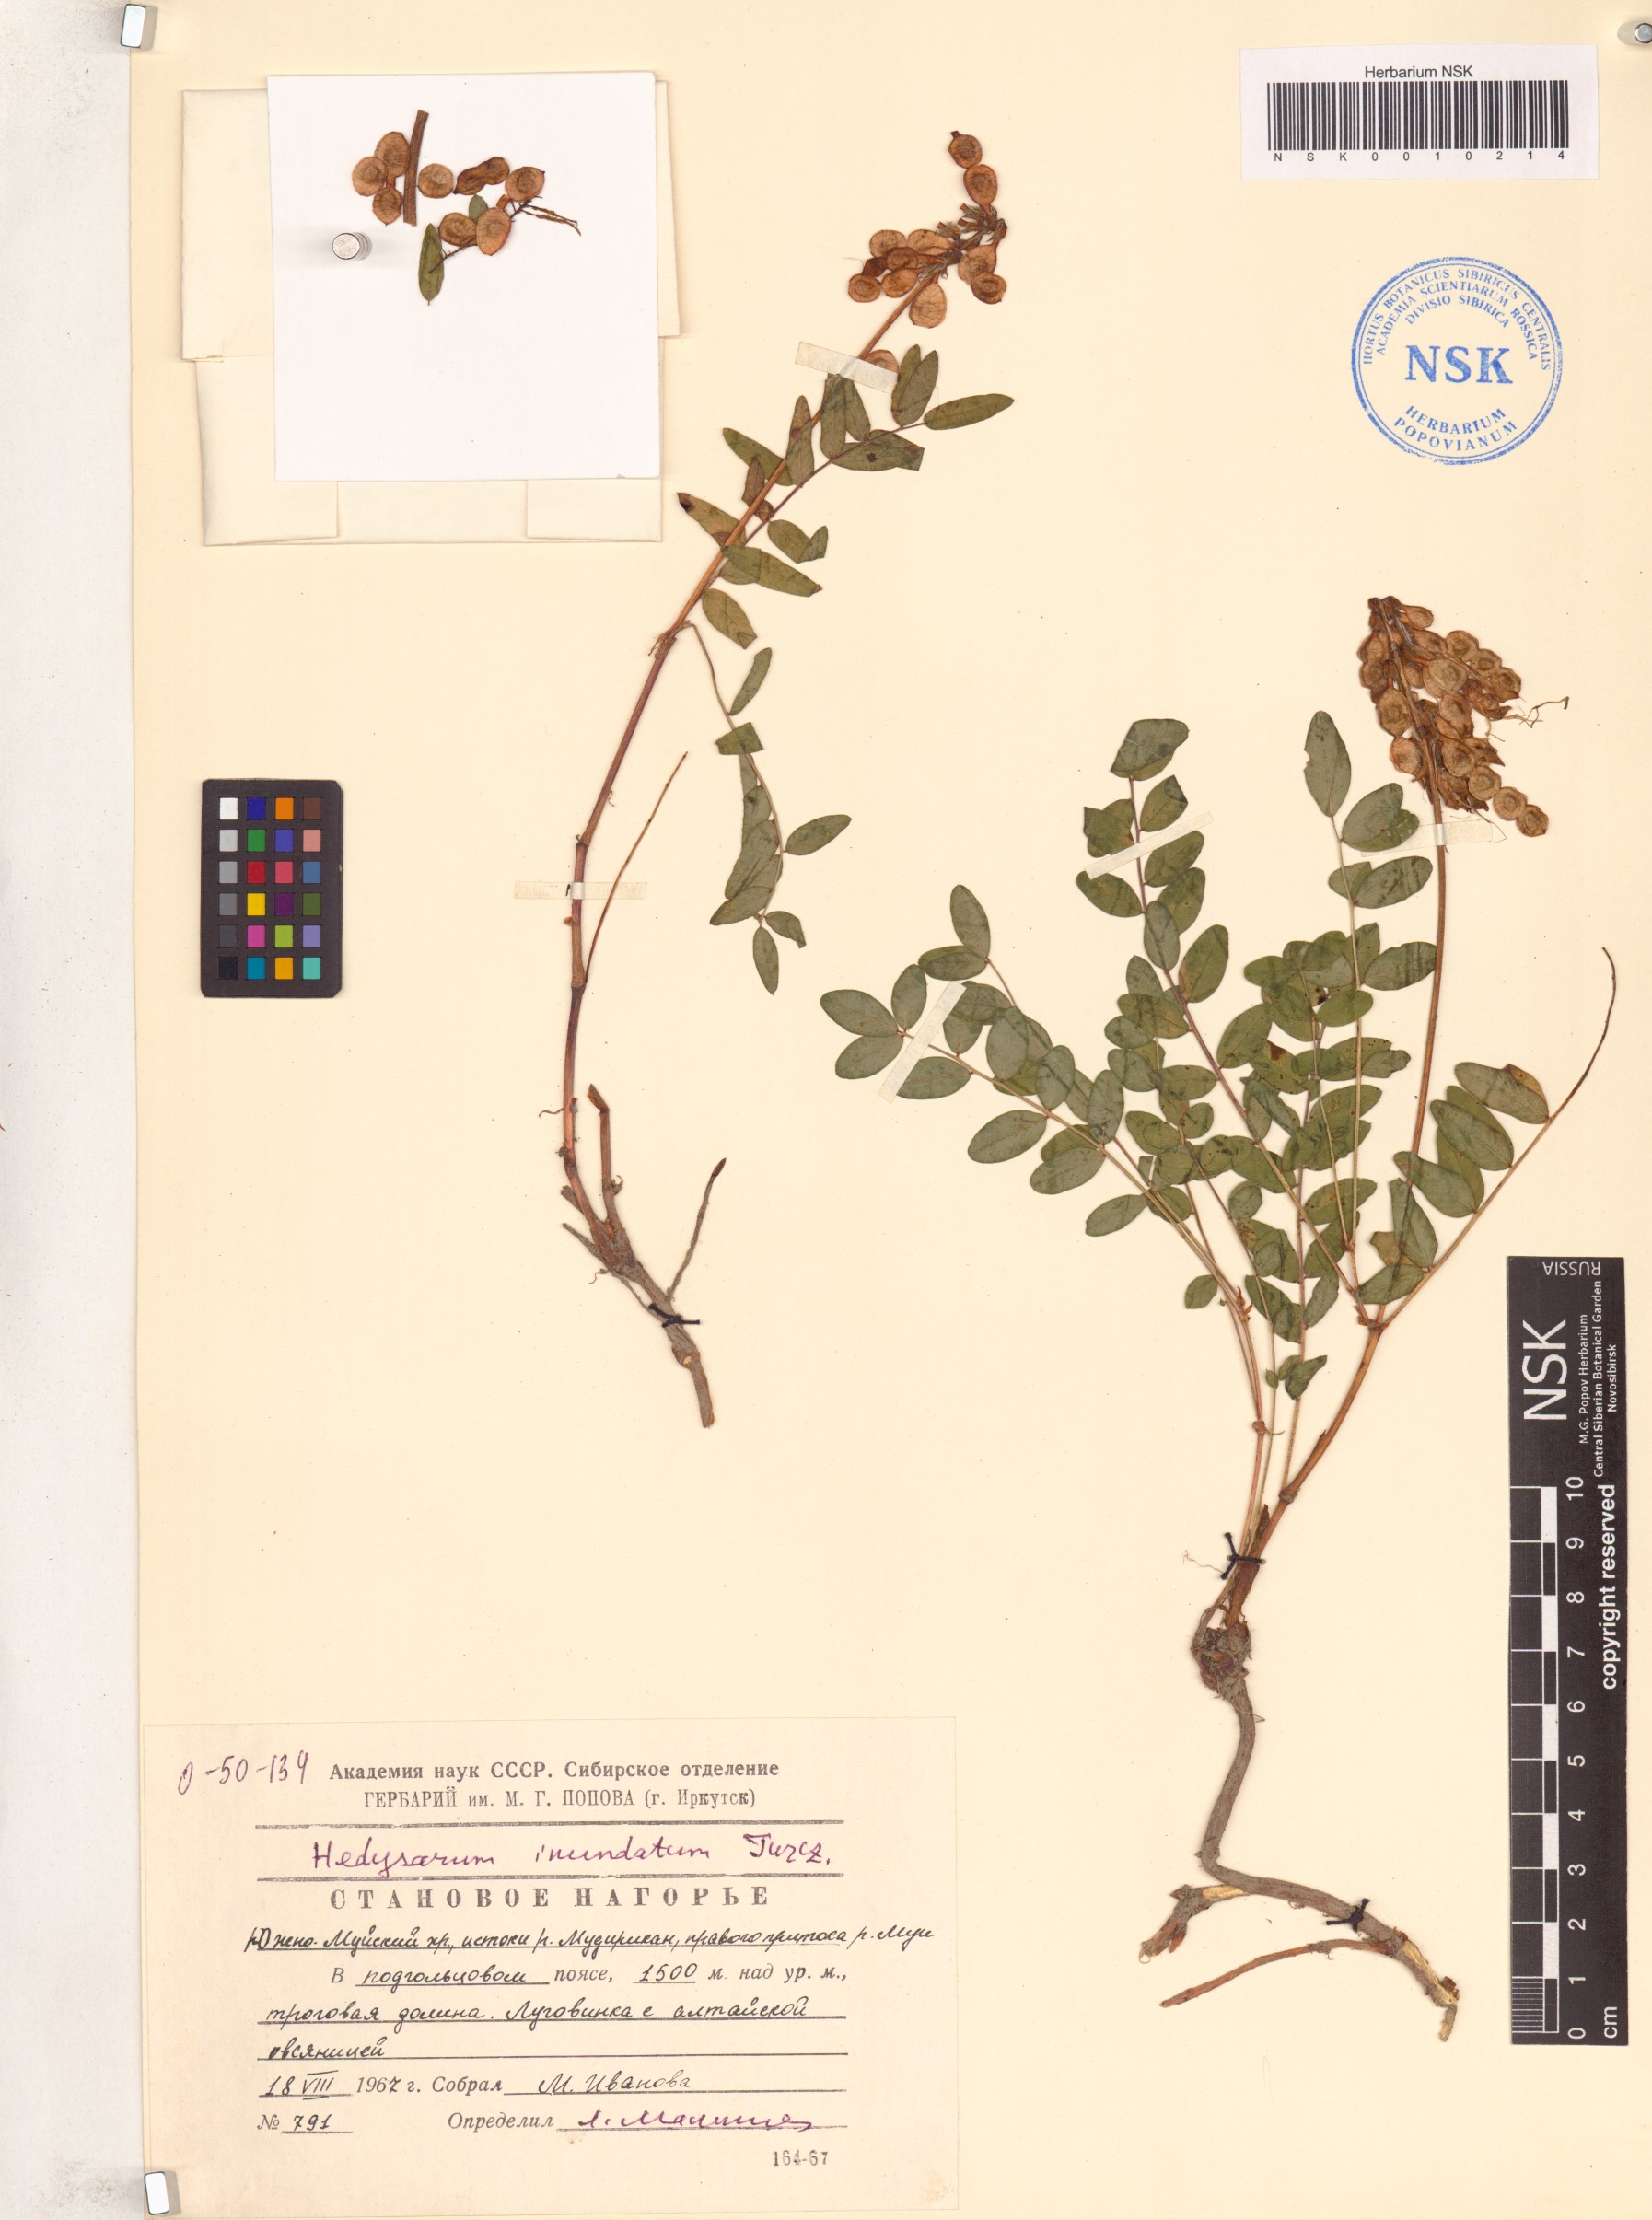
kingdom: Plantae
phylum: Tracheophyta
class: Magnoliopsida
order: Fabales
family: Fabaceae
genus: Hedysarum
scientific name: Hedysarum inundatum
